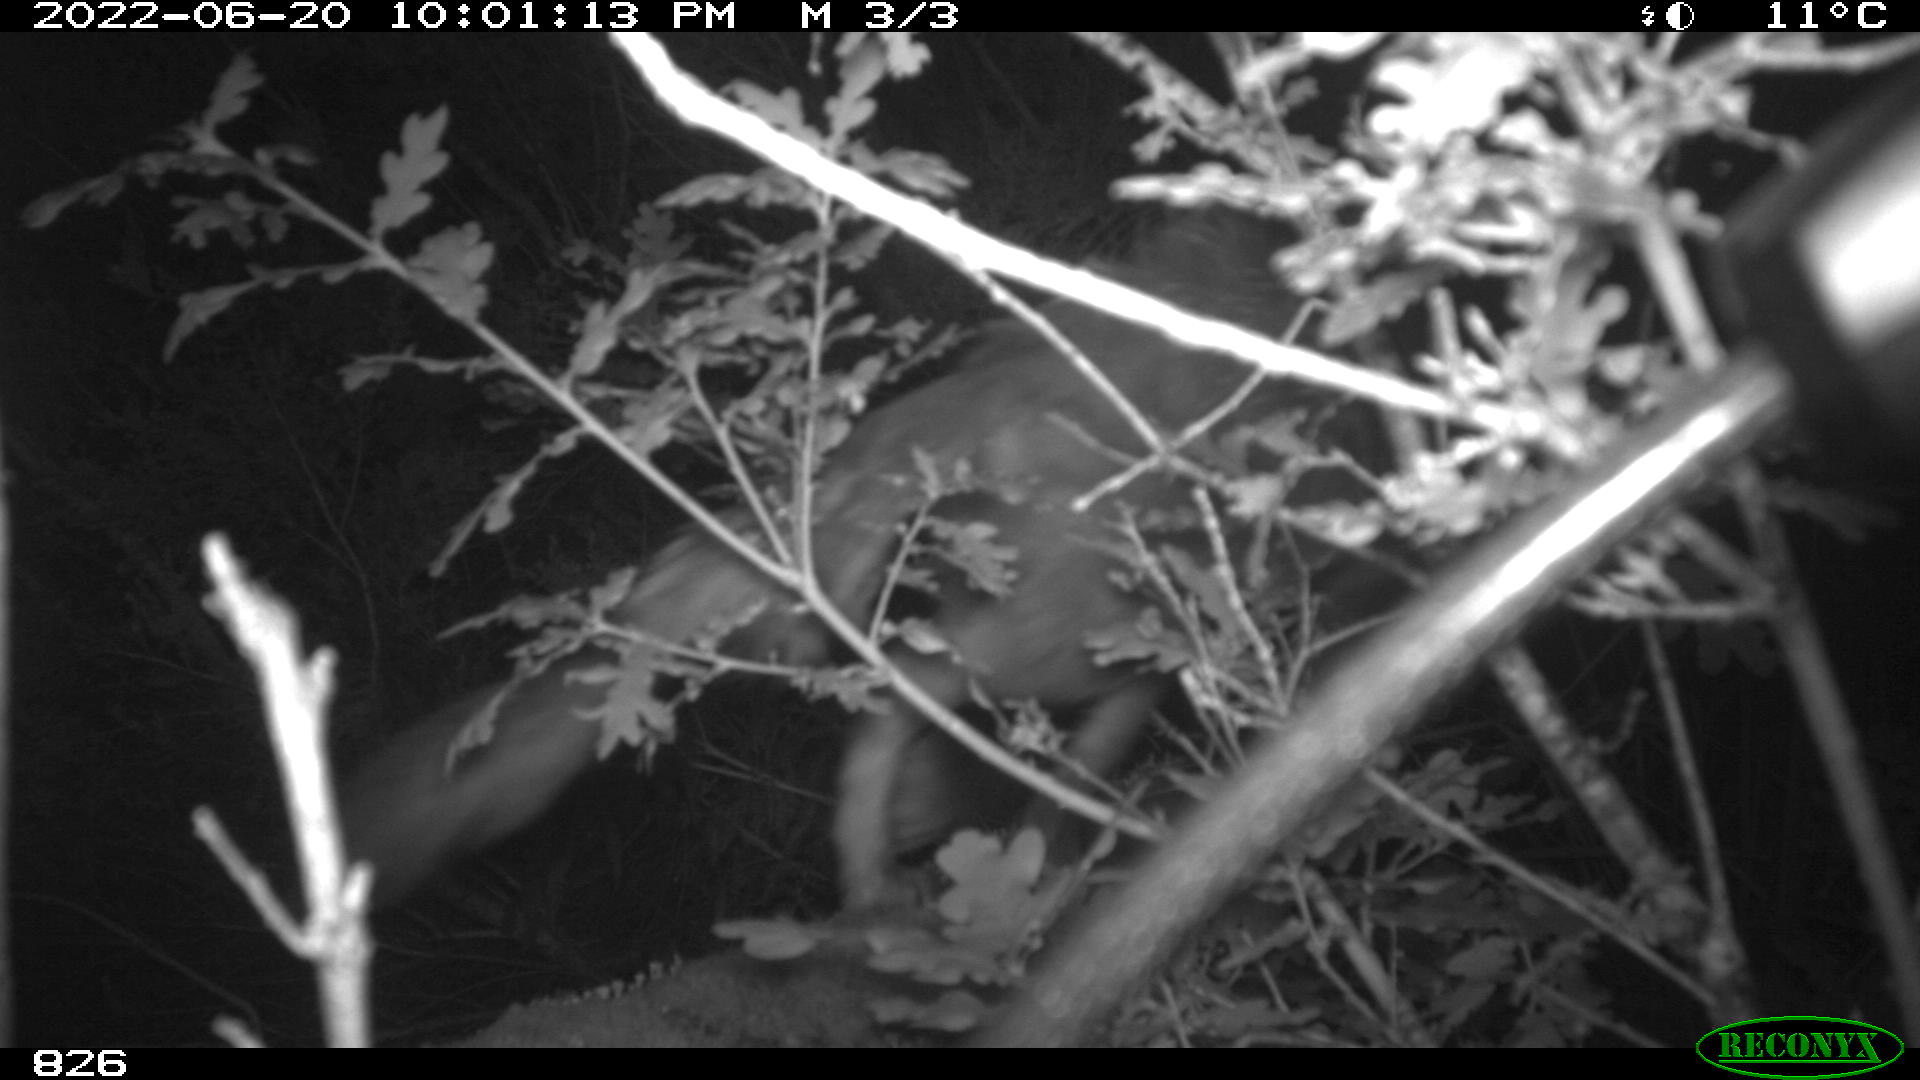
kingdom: Animalia
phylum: Chordata
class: Mammalia
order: Carnivora
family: Canidae
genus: Vulpes
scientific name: Vulpes vulpes
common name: Red fox
